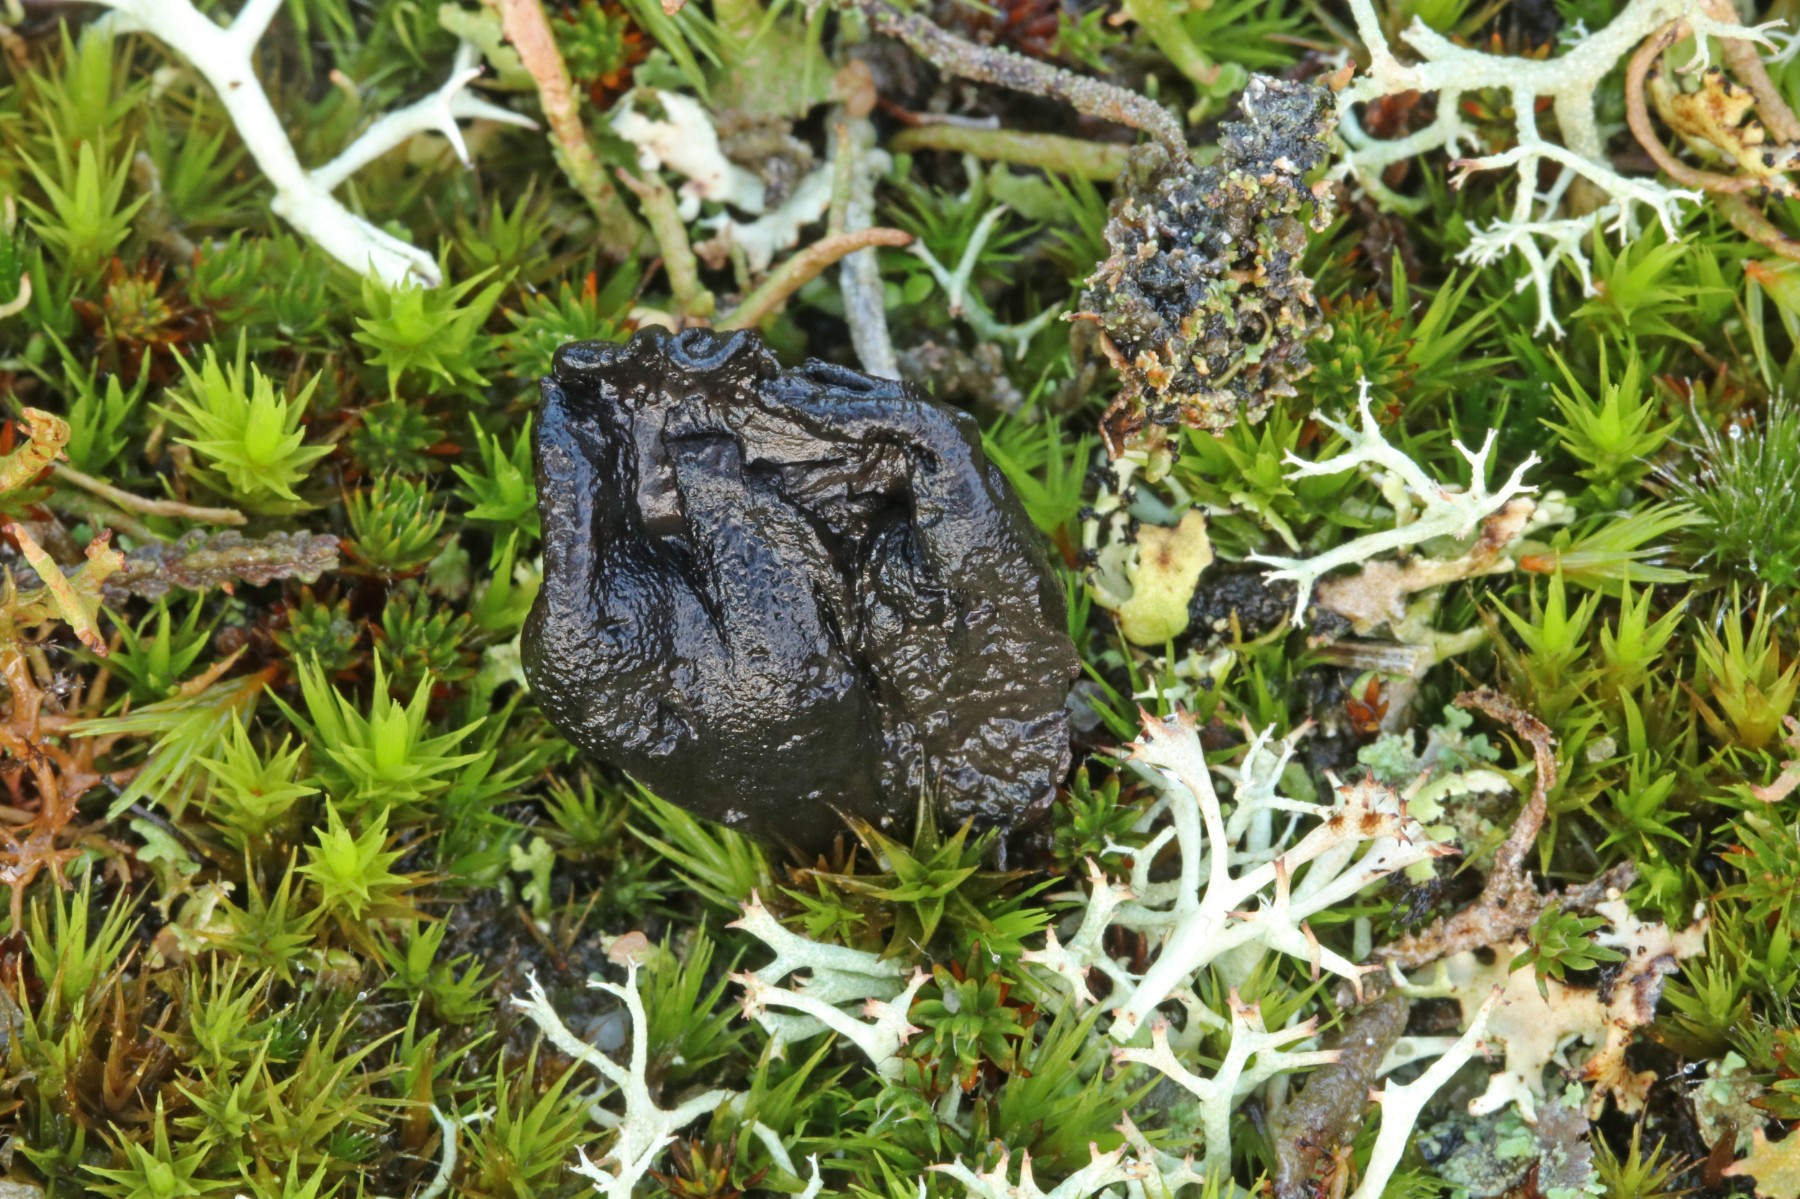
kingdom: Fungi
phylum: Ascomycota
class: Geoglossomycetes
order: Geoglossales
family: Geoglossaceae
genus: Sabuloglossum
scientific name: Sabuloglossum arenarium
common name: klit-jordtunge
